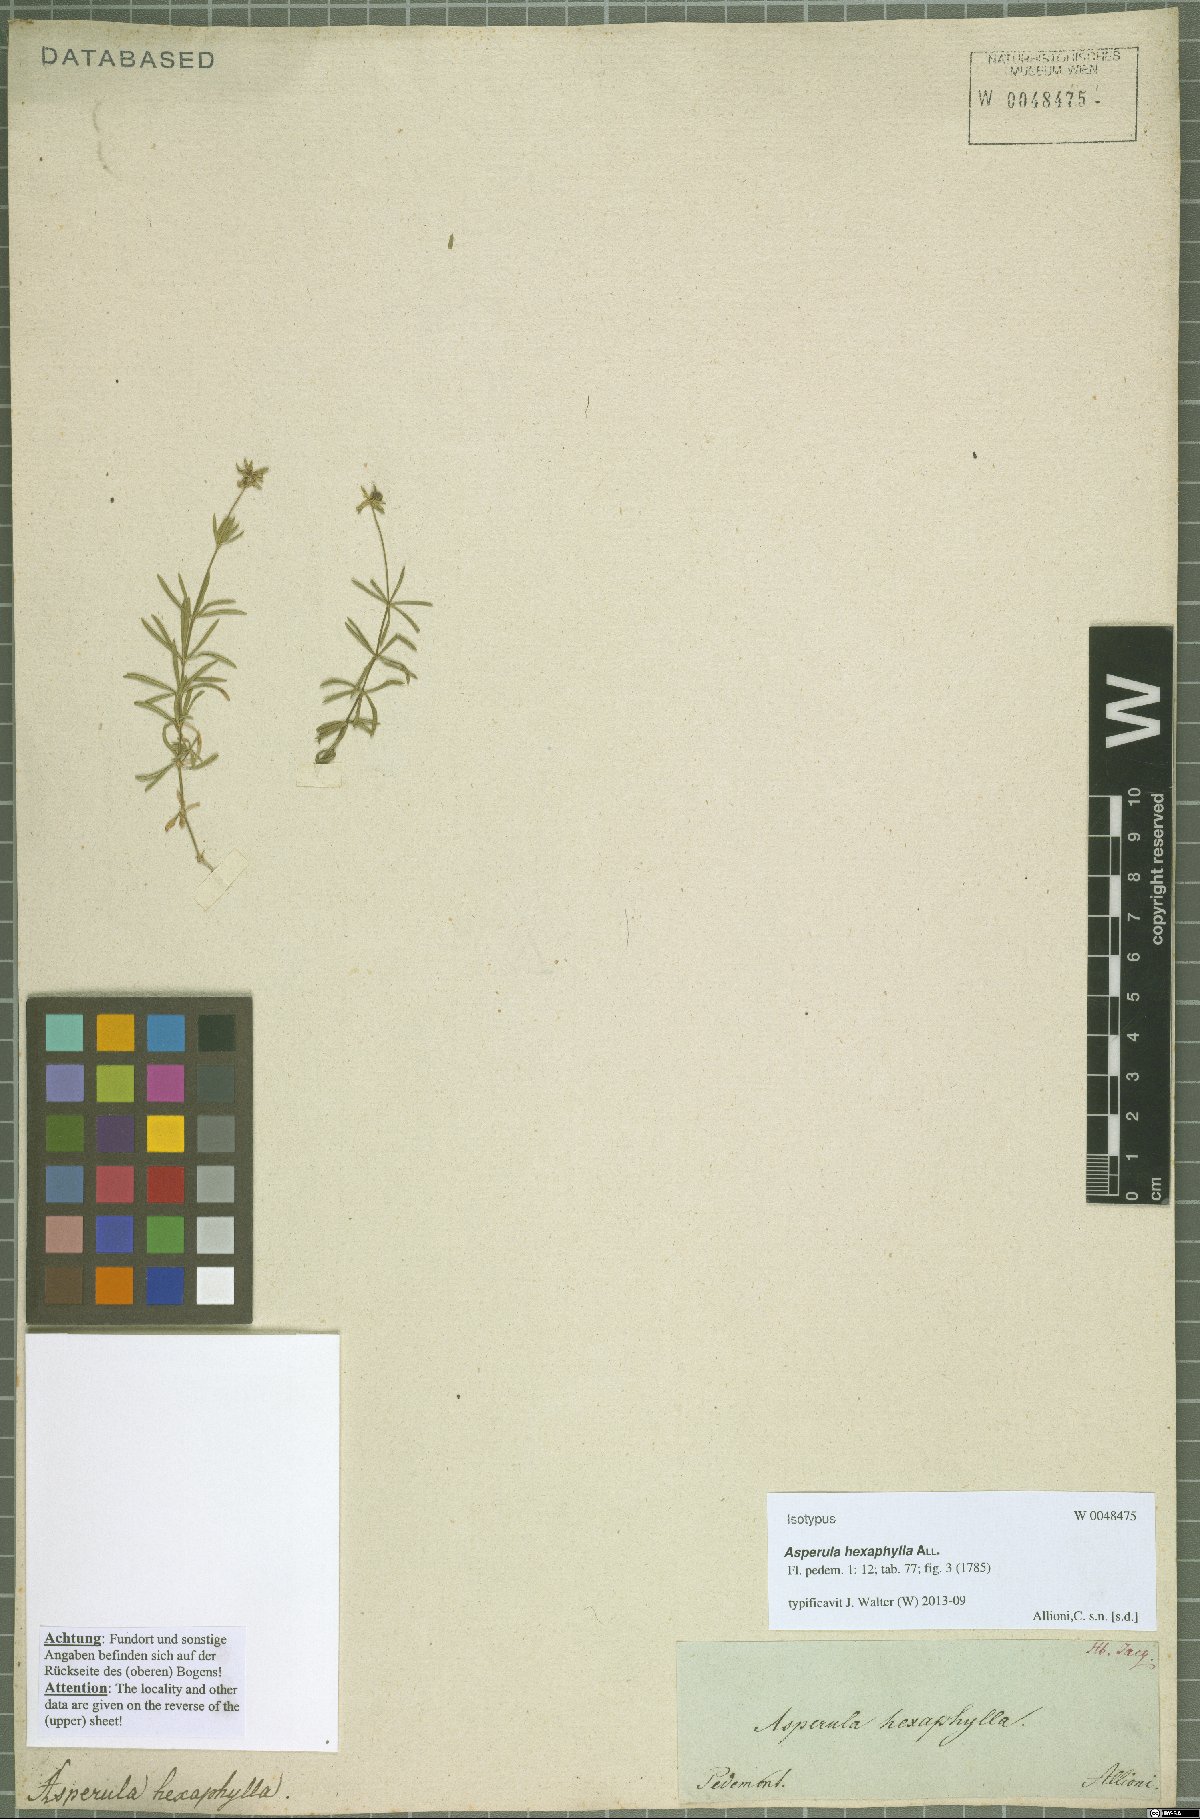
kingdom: Plantae
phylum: Tracheophyta
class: Magnoliopsida
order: Gentianales
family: Rubiaceae
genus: Hexaphylla
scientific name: Hexaphylla allionii
